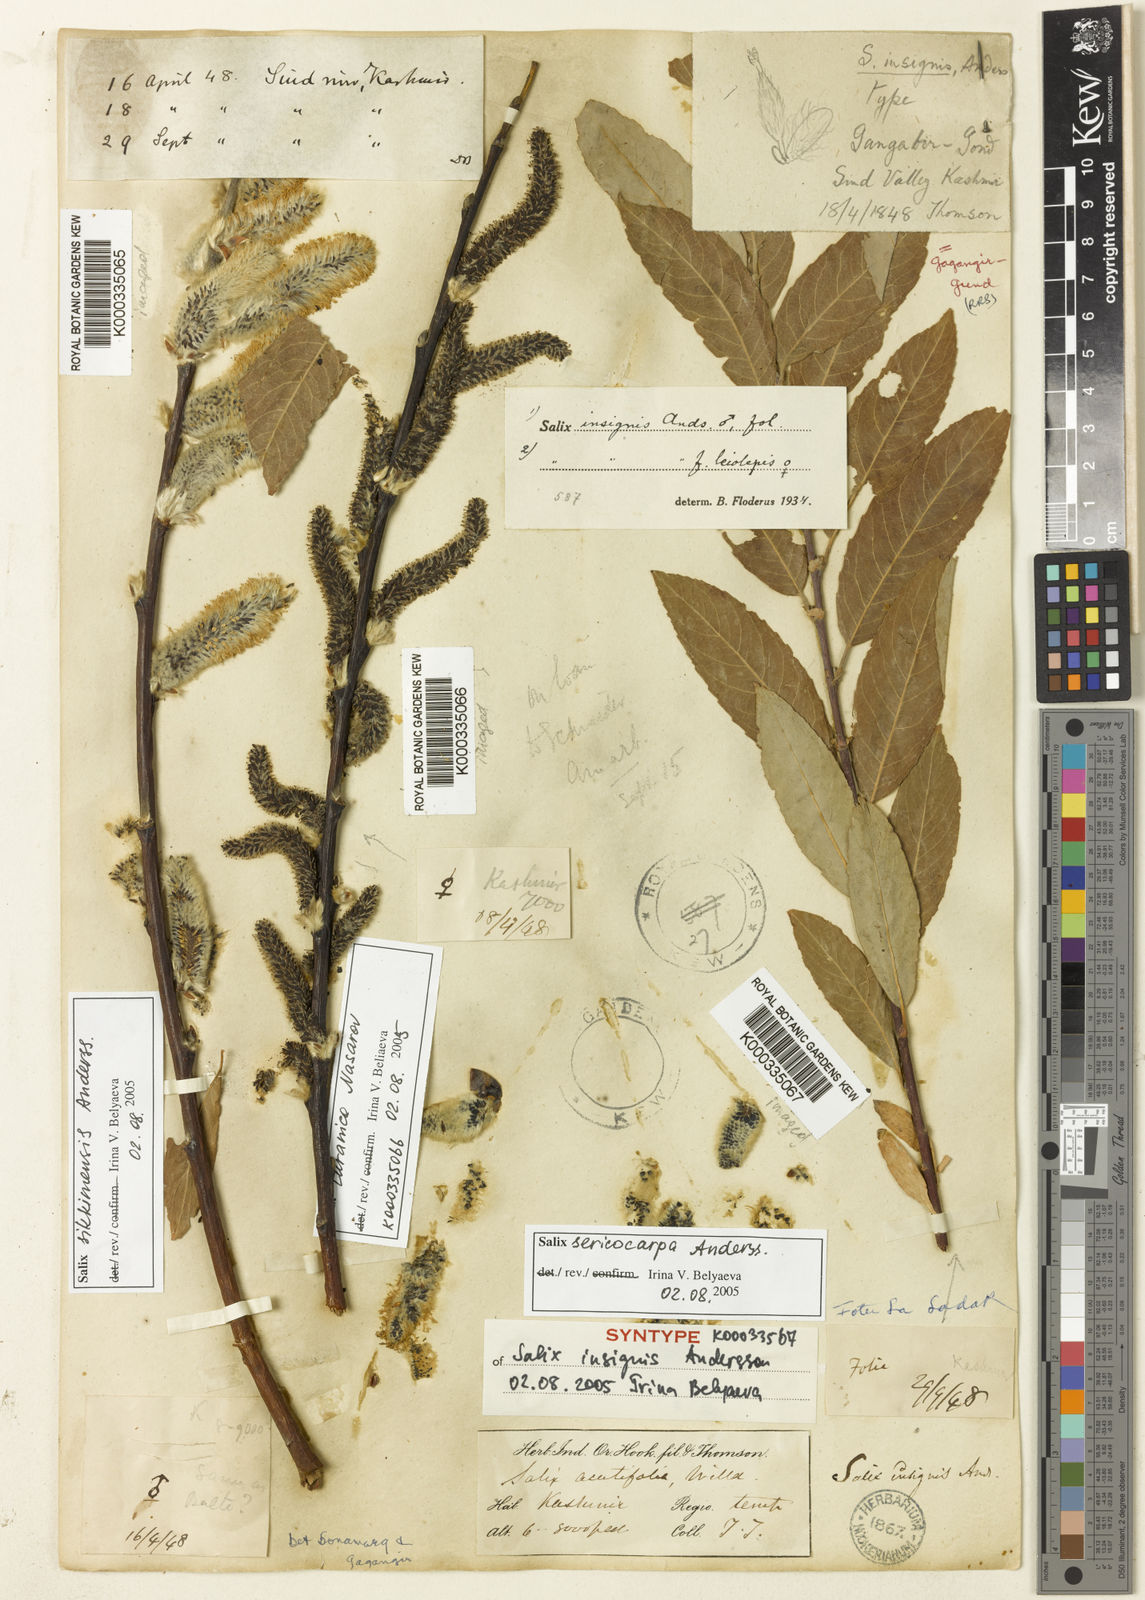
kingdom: Plantae
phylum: Tracheophyta
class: Magnoliopsida
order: Malpighiales
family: Salicaceae
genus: Salix
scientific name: Salix sericocarpa
